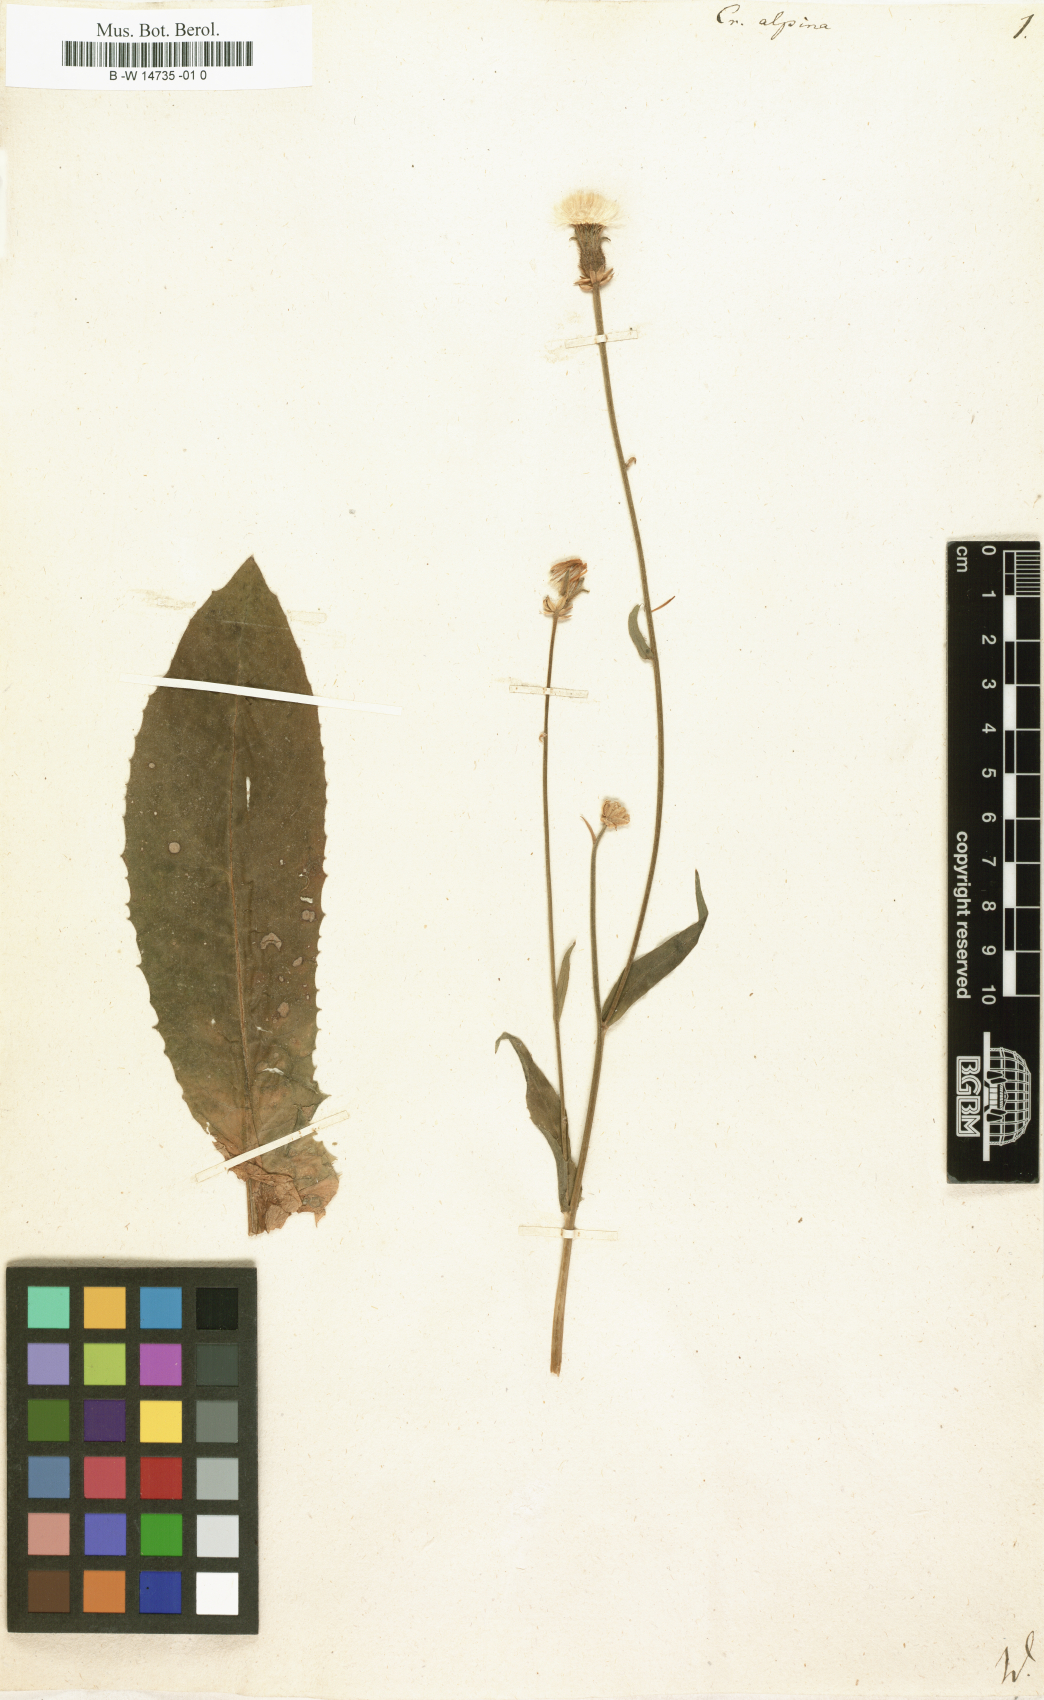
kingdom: Plantae
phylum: Tracheophyta
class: Magnoliopsida
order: Asterales
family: Asteraceae
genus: Crepis
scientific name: Crepis alpina
